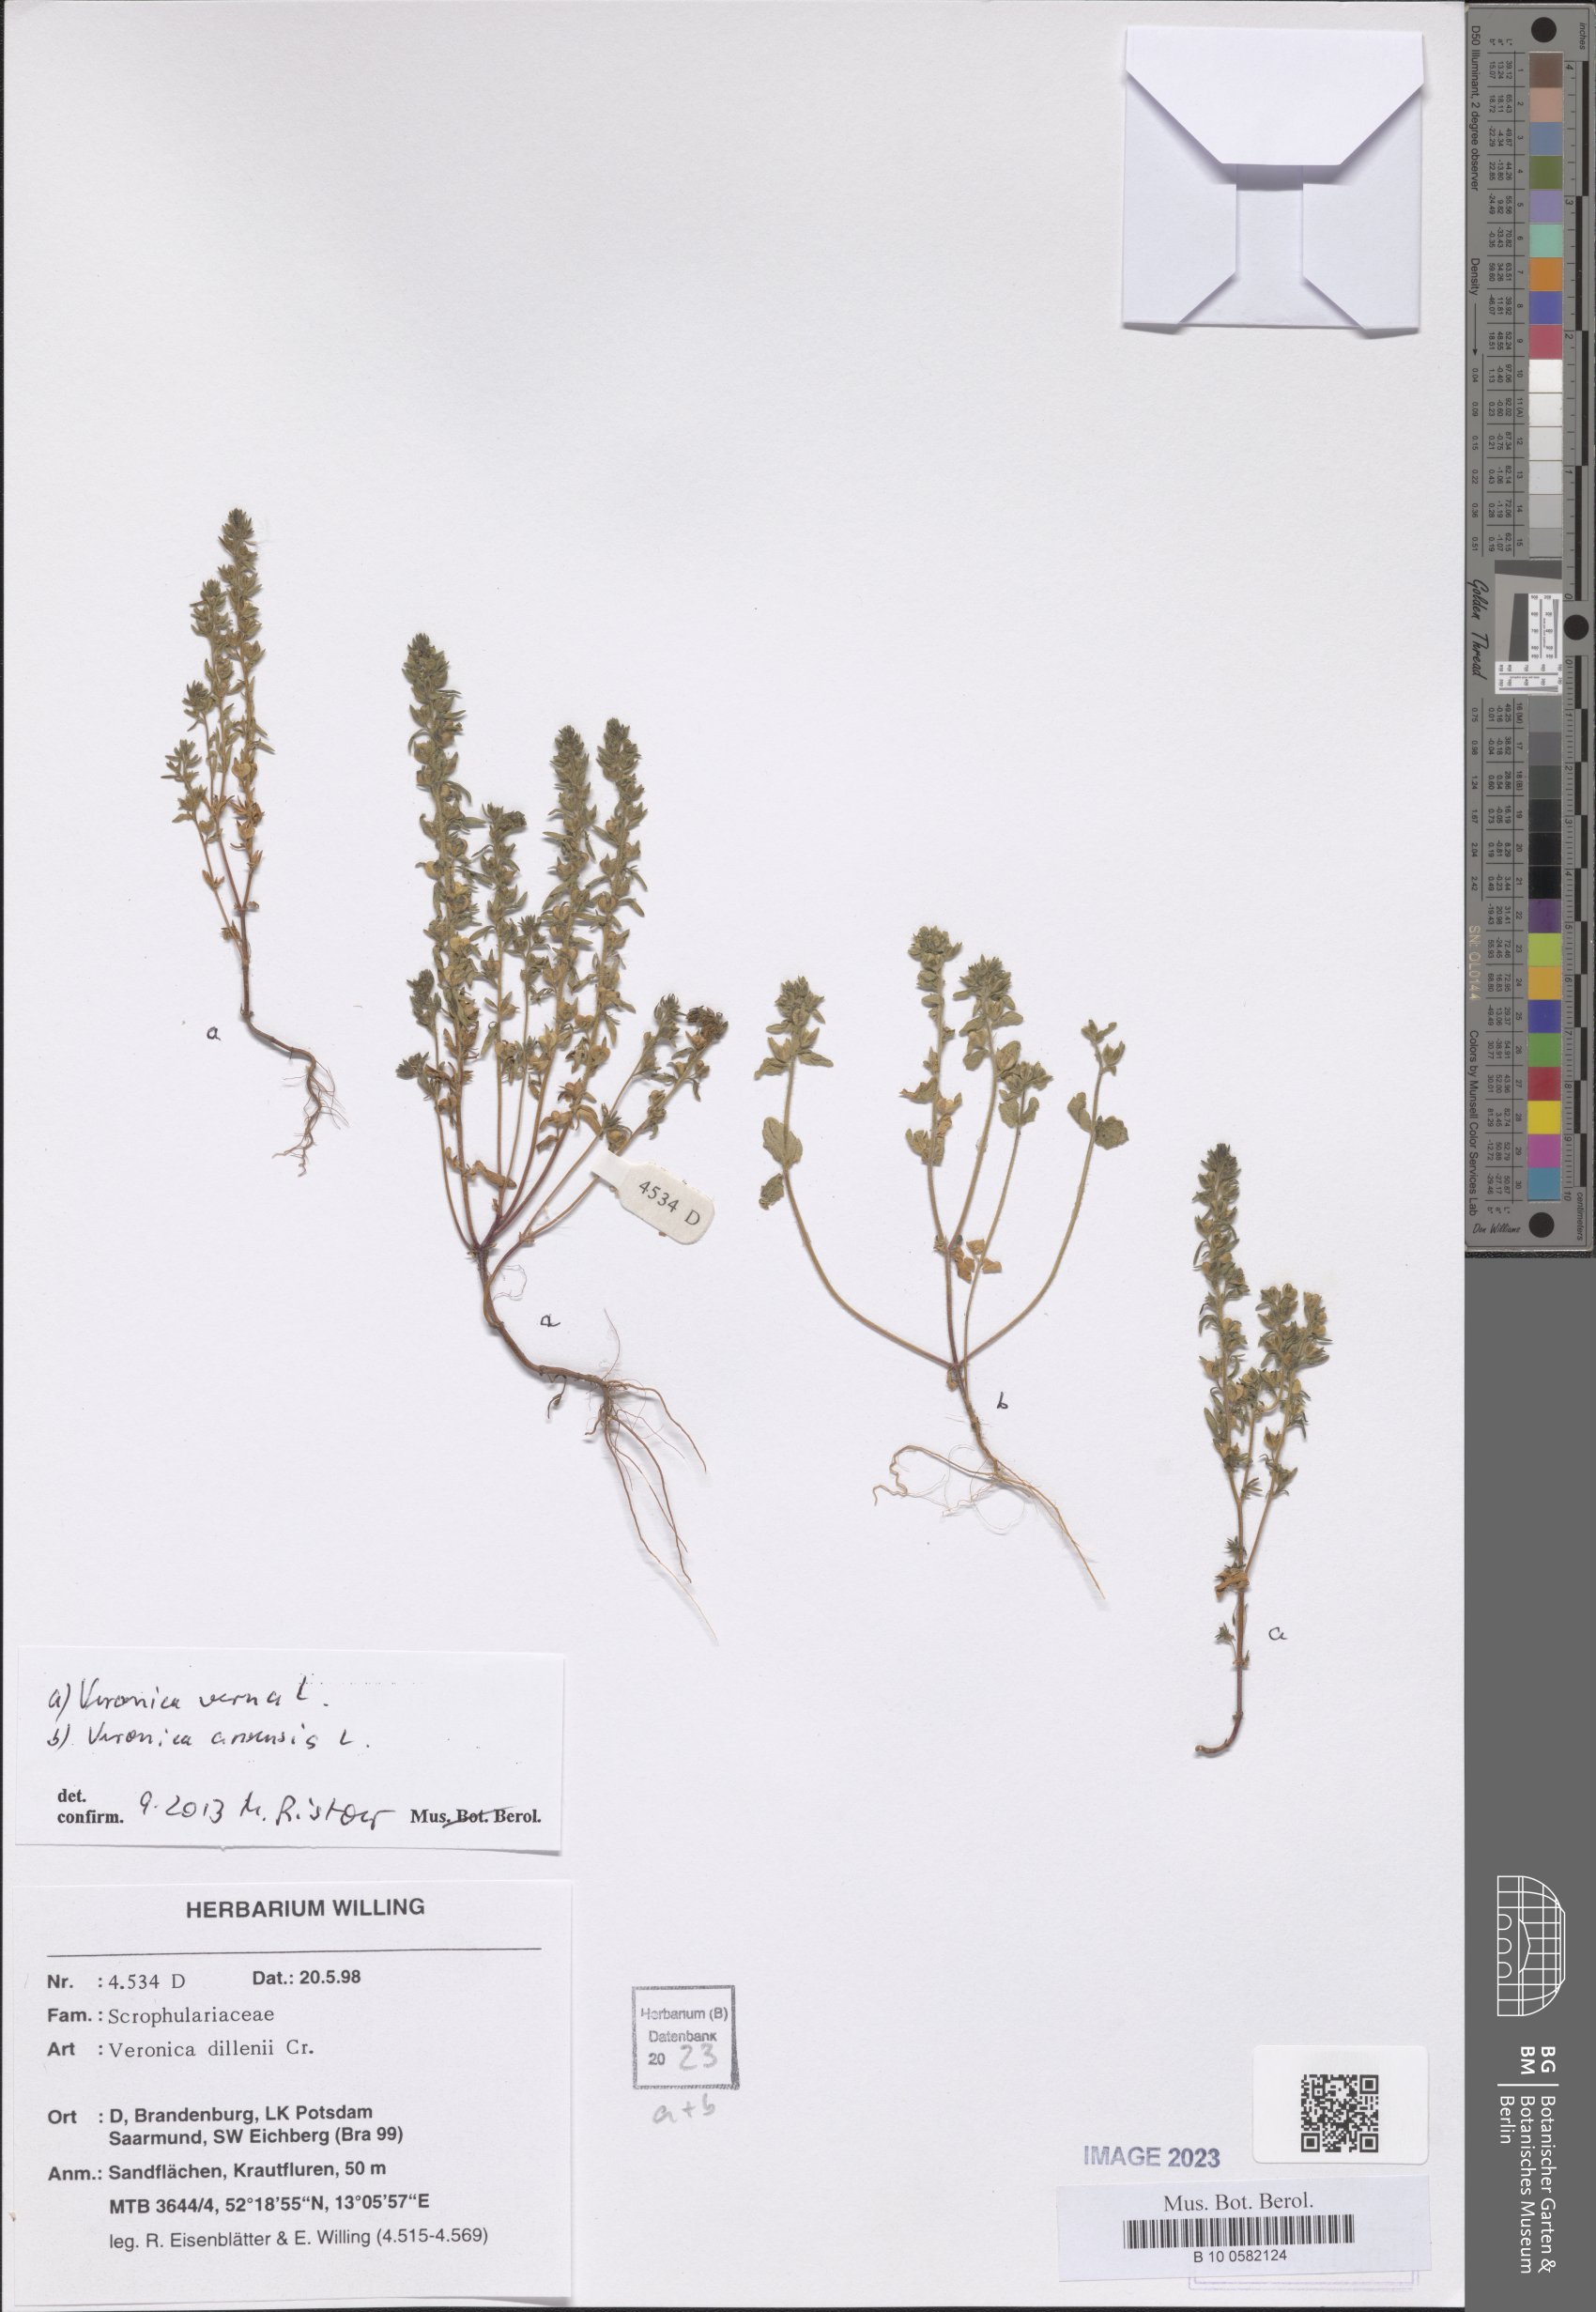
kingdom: Plantae
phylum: Tracheophyta
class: Magnoliopsida
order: Lamiales
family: Plantaginaceae
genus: Veronica
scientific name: Veronica verna
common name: Spring speedwell
